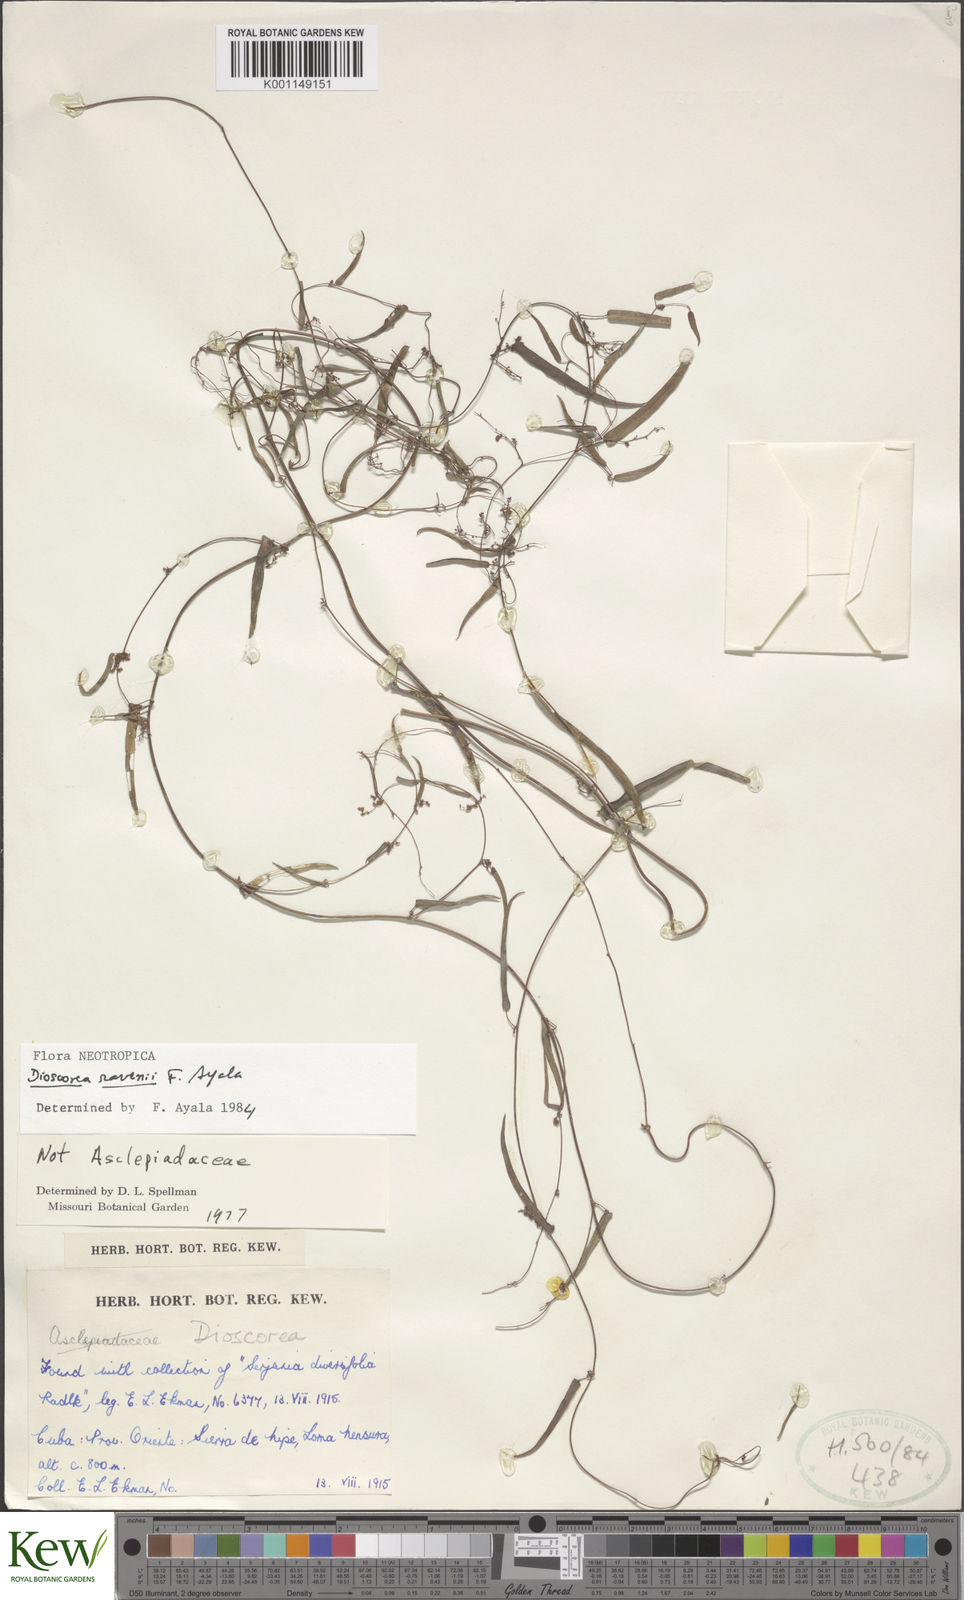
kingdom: Plantae
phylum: Tracheophyta
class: Liliopsida
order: Dioscoreales
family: Dioscoreaceae
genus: Dioscorea
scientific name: Dioscorea nipensis
